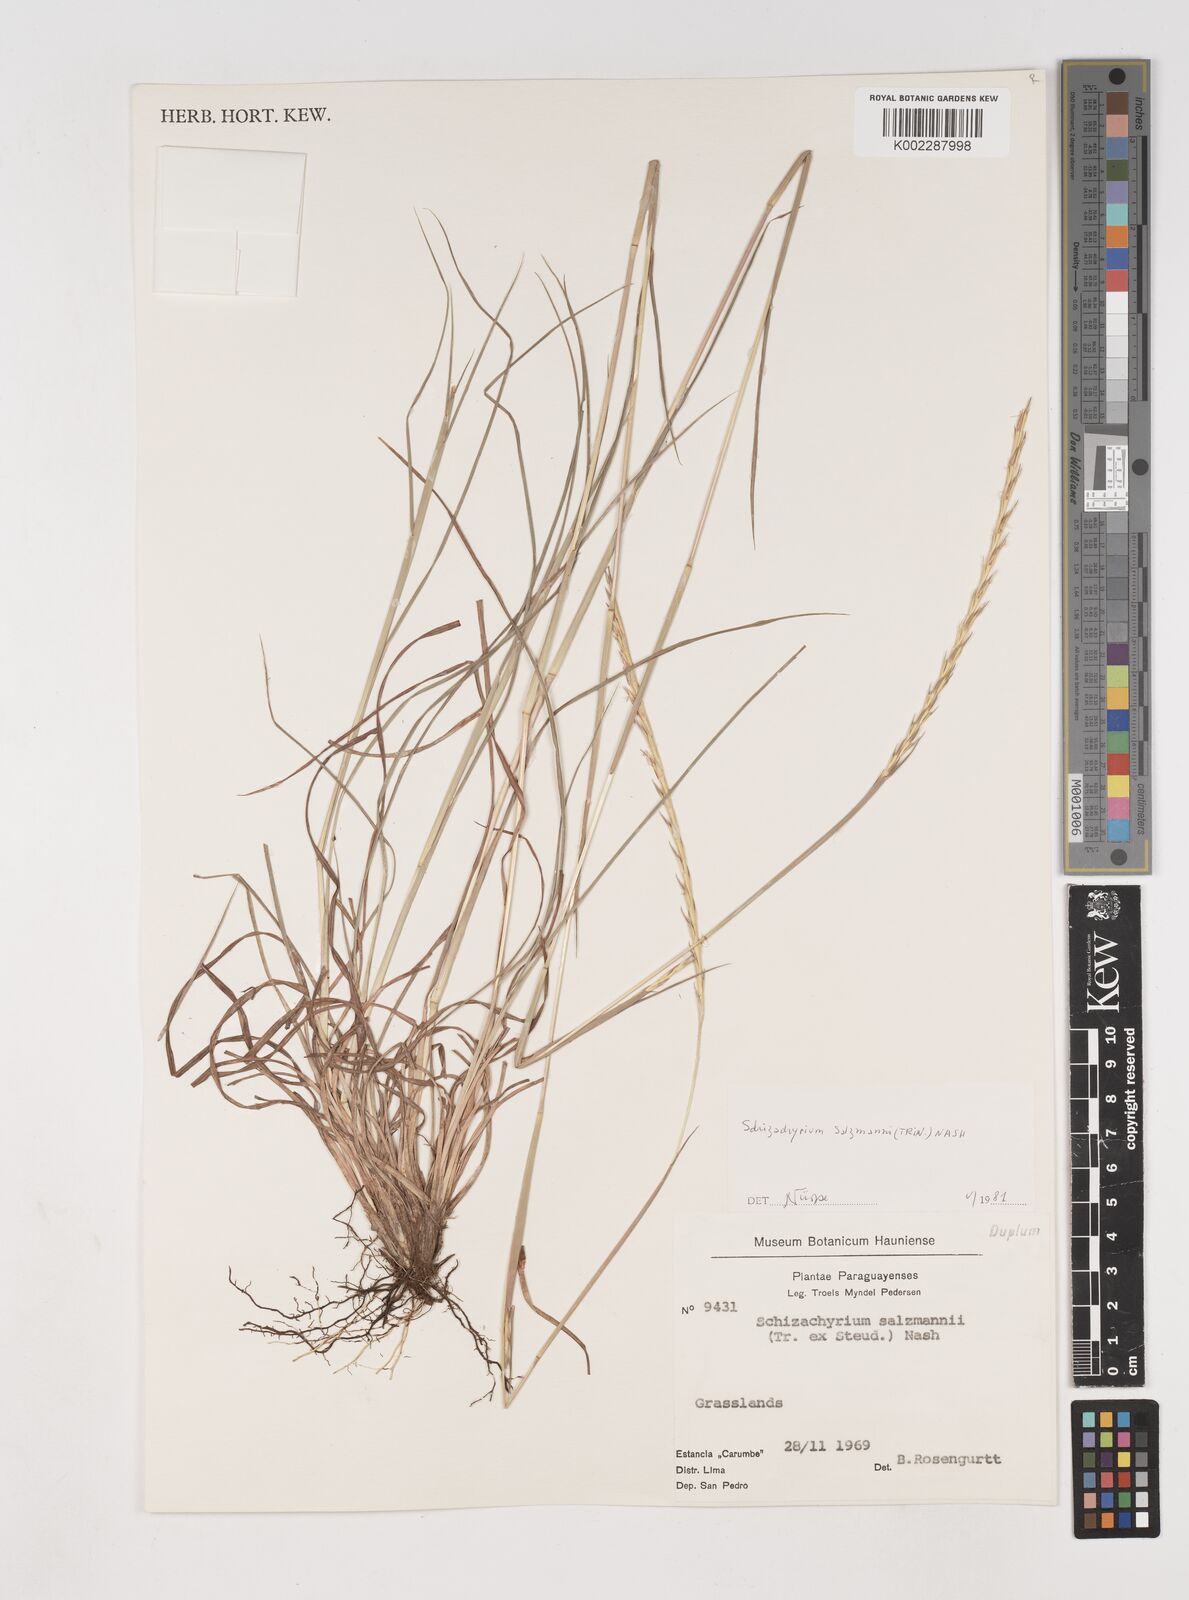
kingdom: Plantae
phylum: Tracheophyta
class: Liliopsida
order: Poales
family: Poaceae
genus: Andropogon
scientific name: Andropogon salzmannii
